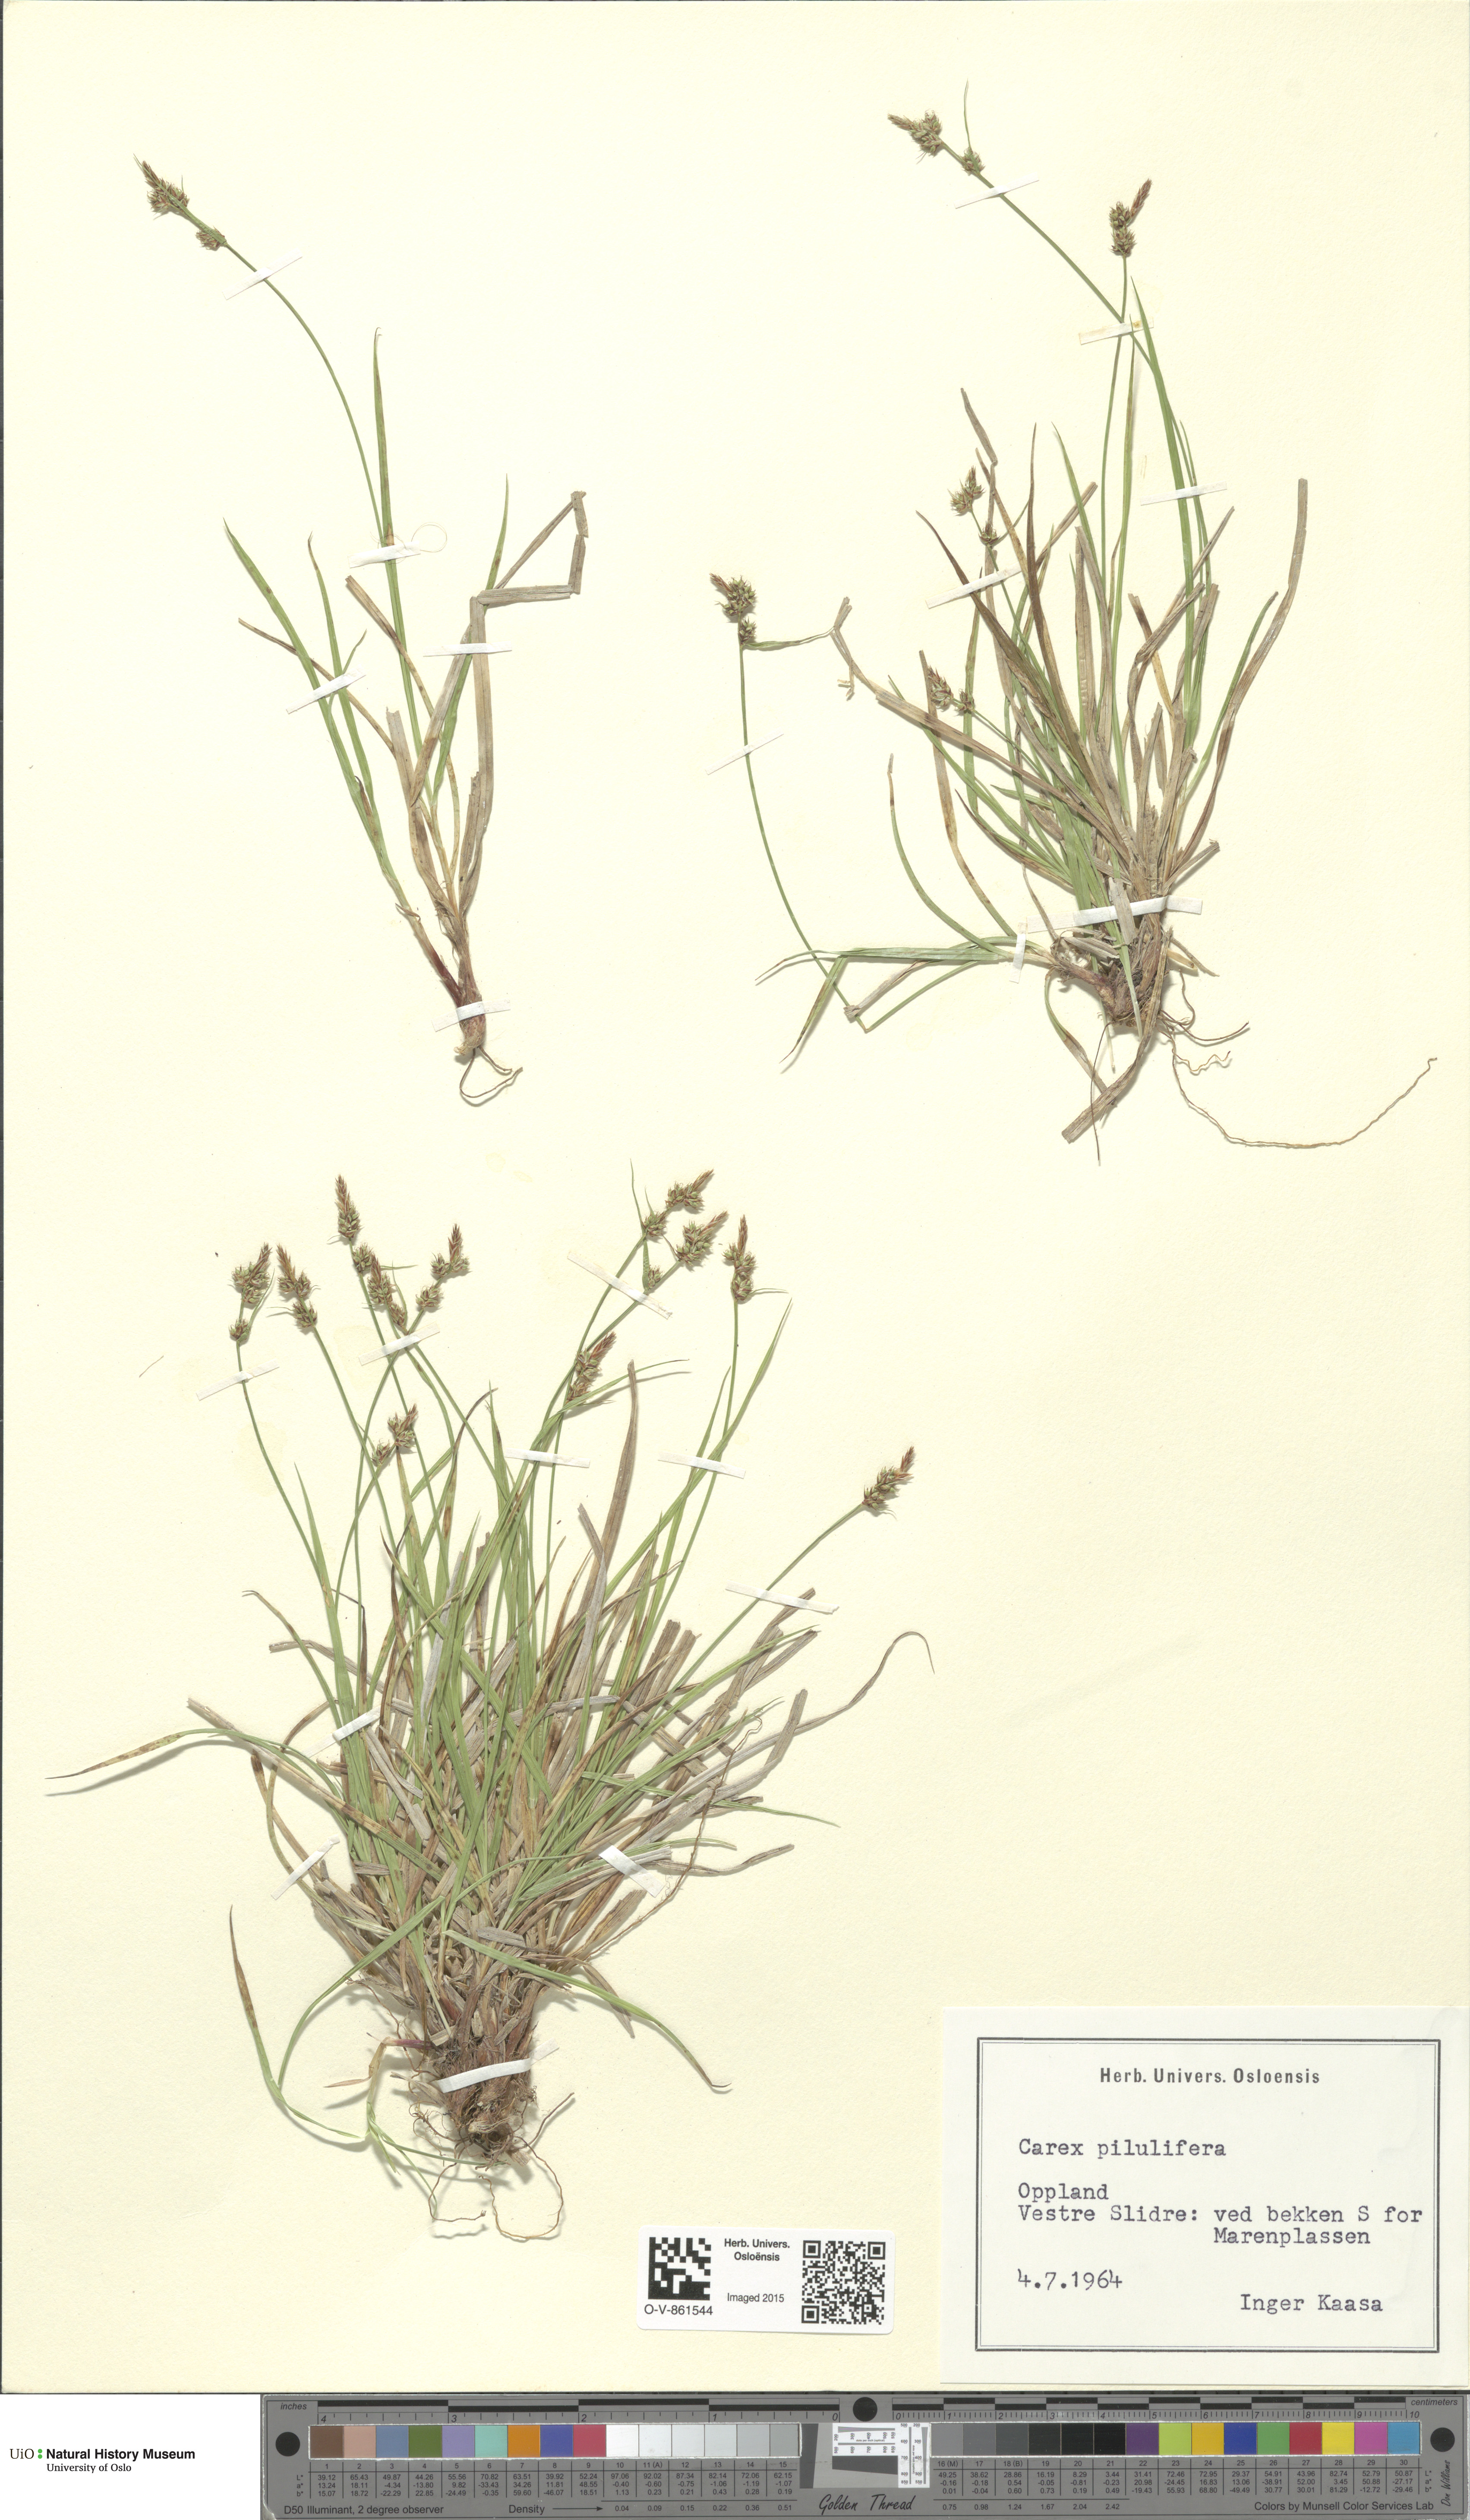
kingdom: Plantae
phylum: Tracheophyta
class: Liliopsida
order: Poales
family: Cyperaceae
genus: Carex
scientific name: Carex pilulifera
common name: Pill sedge
